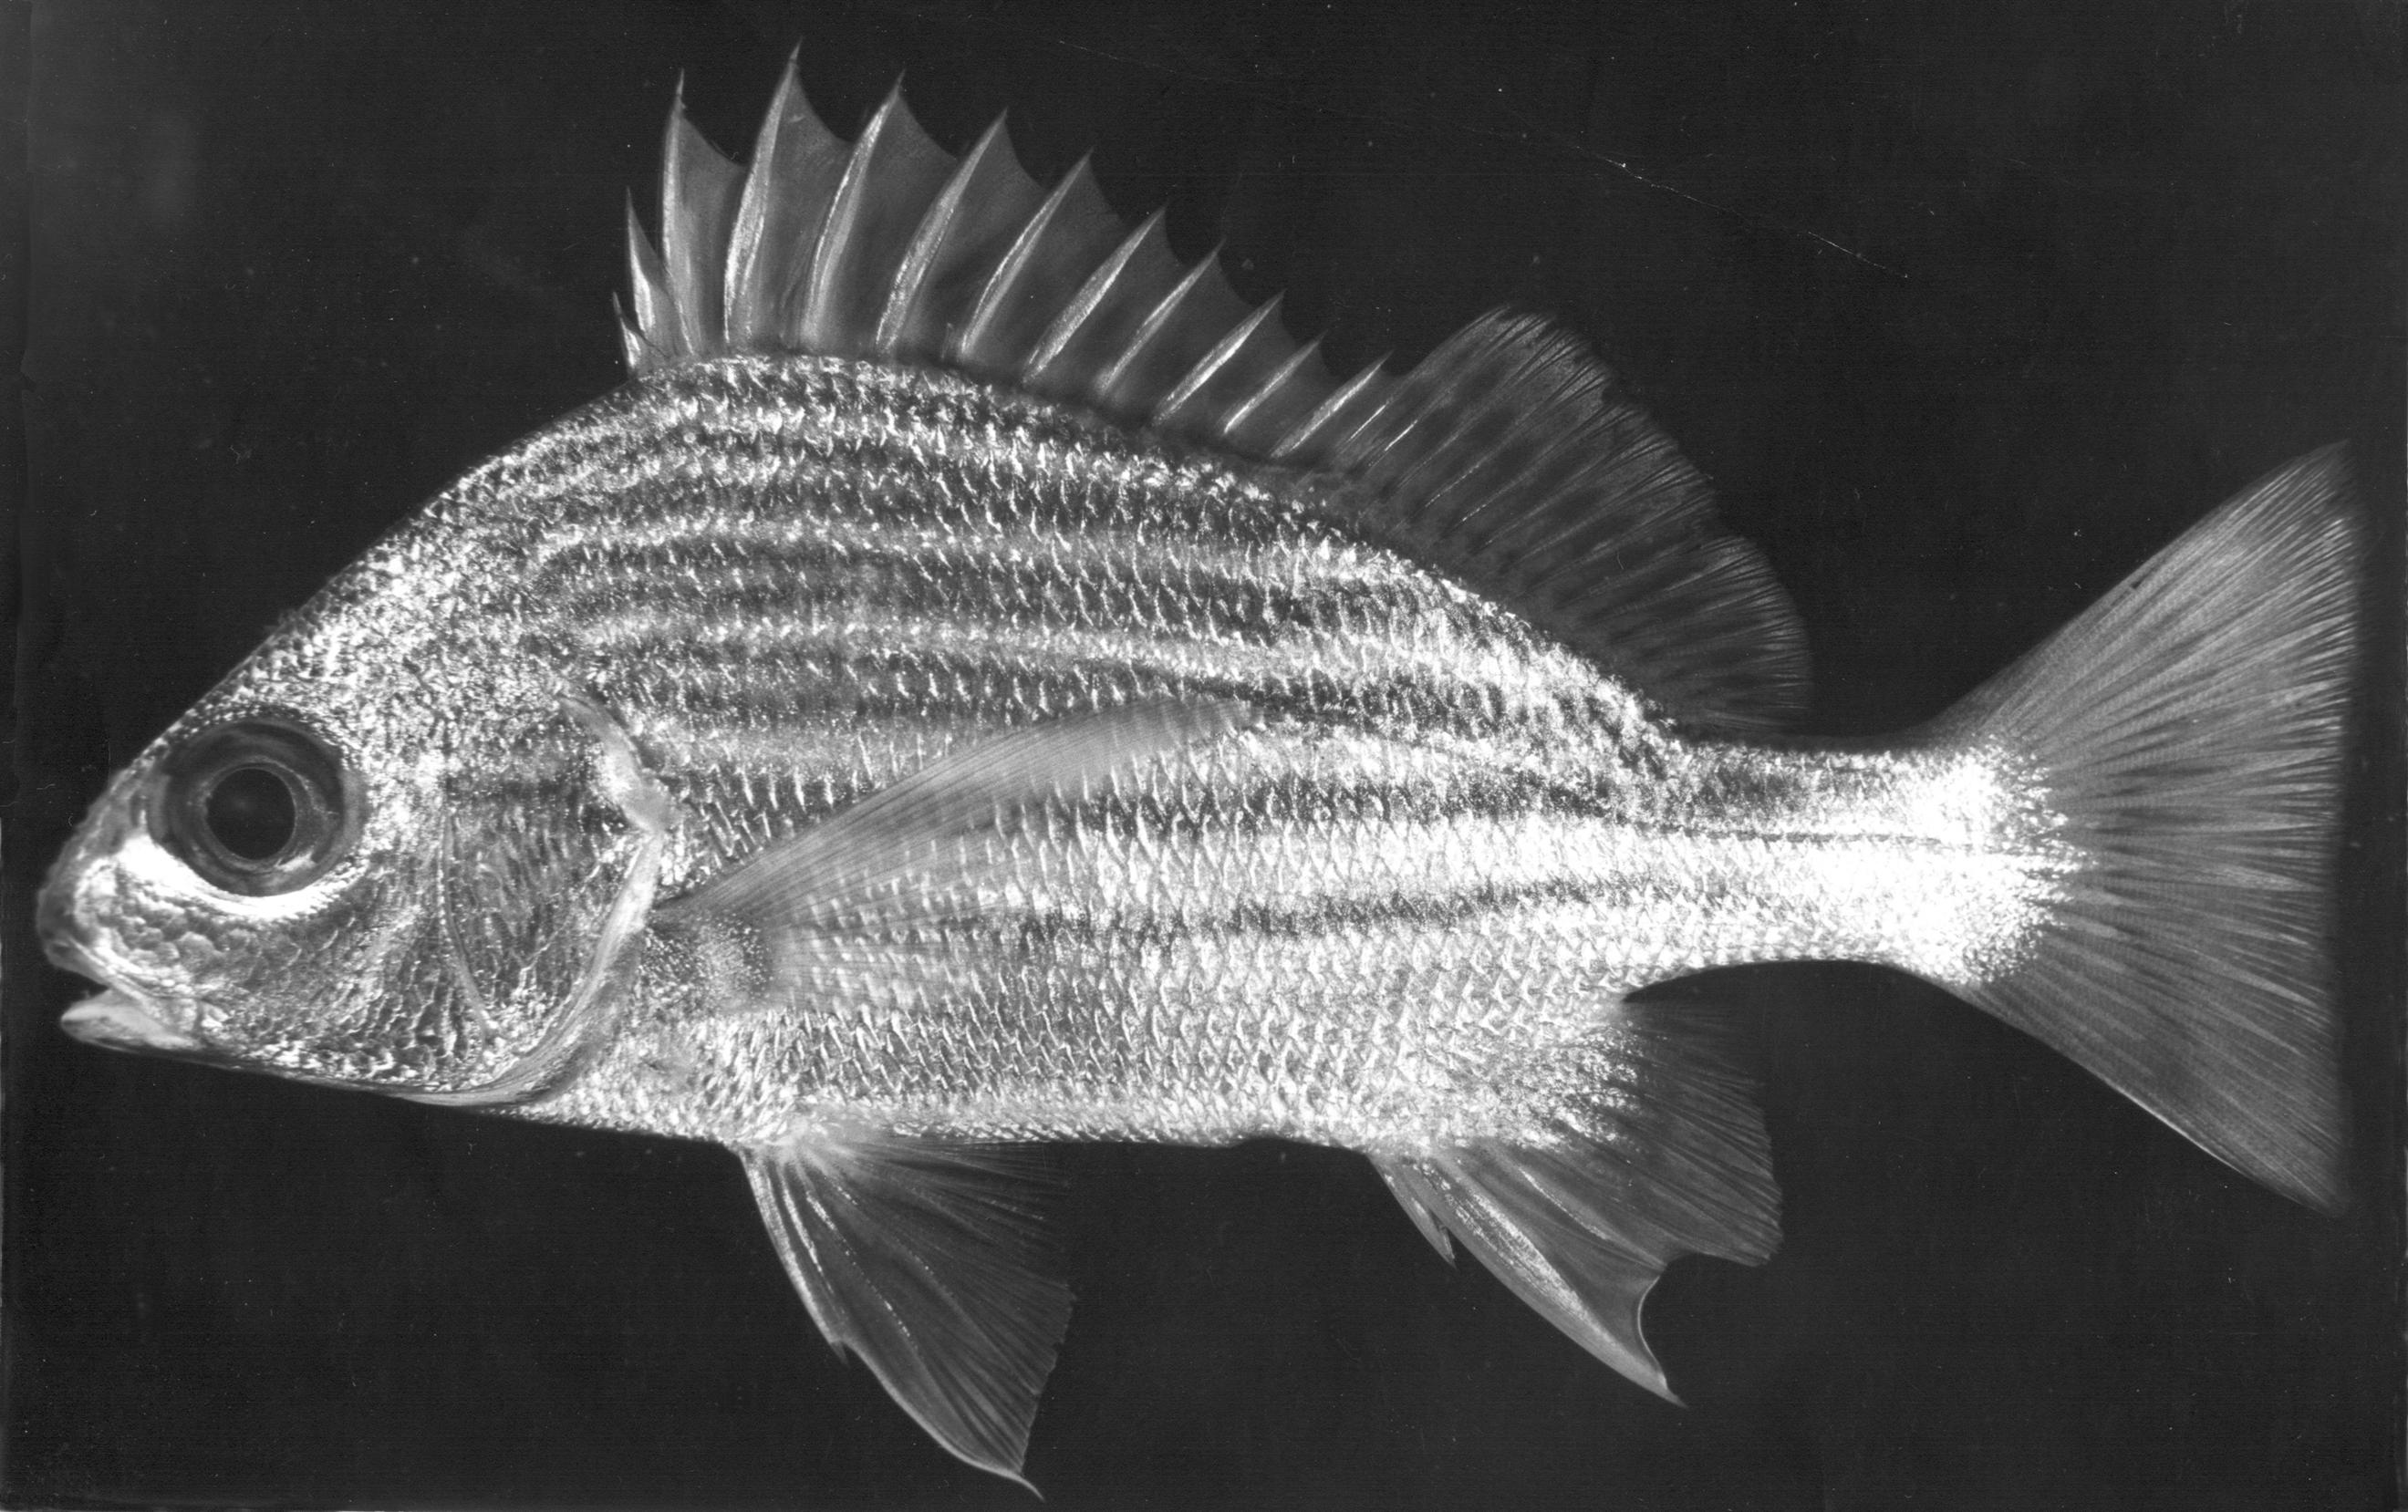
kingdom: Animalia
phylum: Chordata
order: Perciformes
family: Haemulidae
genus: Pomadasys
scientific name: Pomadasys furcatus
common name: Banded grunter
